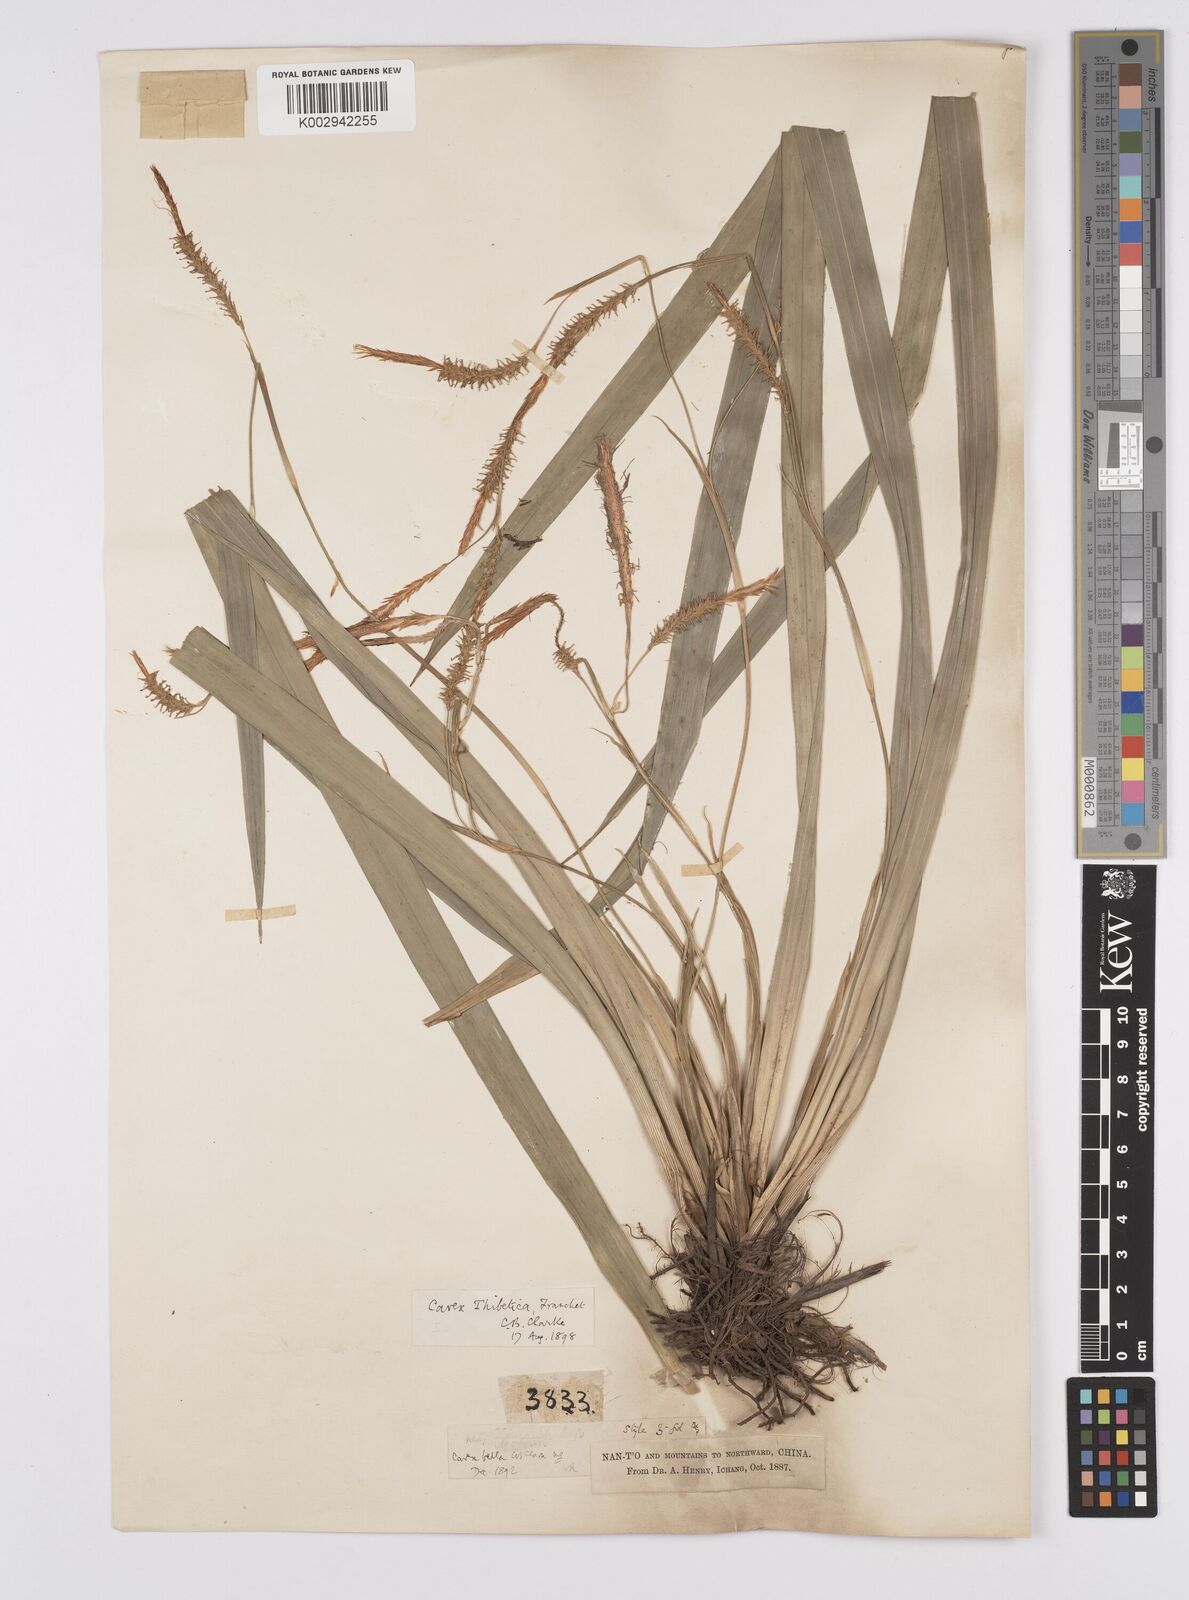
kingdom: Plantae
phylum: Tracheophyta
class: Liliopsida
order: Poales
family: Cyperaceae
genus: Carex
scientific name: Carex thibetica
